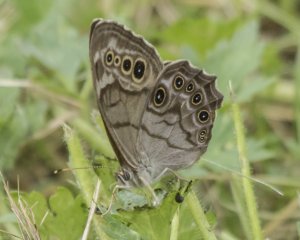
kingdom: Animalia
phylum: Arthropoda
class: Insecta
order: Lepidoptera
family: Nymphalidae
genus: Lethe
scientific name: Lethe anthedon
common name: Northern Pearly-Eye
